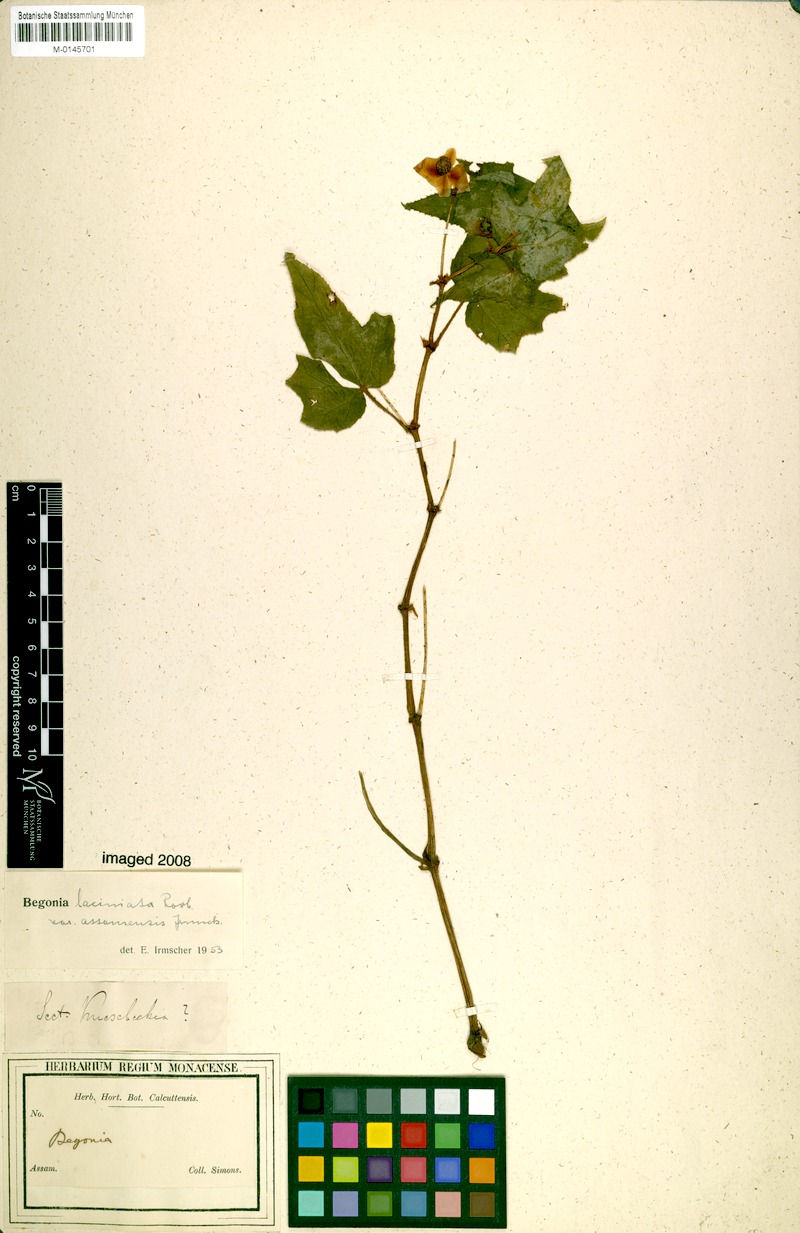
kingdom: Plantae
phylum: Tracheophyta
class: Magnoliopsida
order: Cucurbitales
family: Begoniaceae
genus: Begonia
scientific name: Begonia palmata
